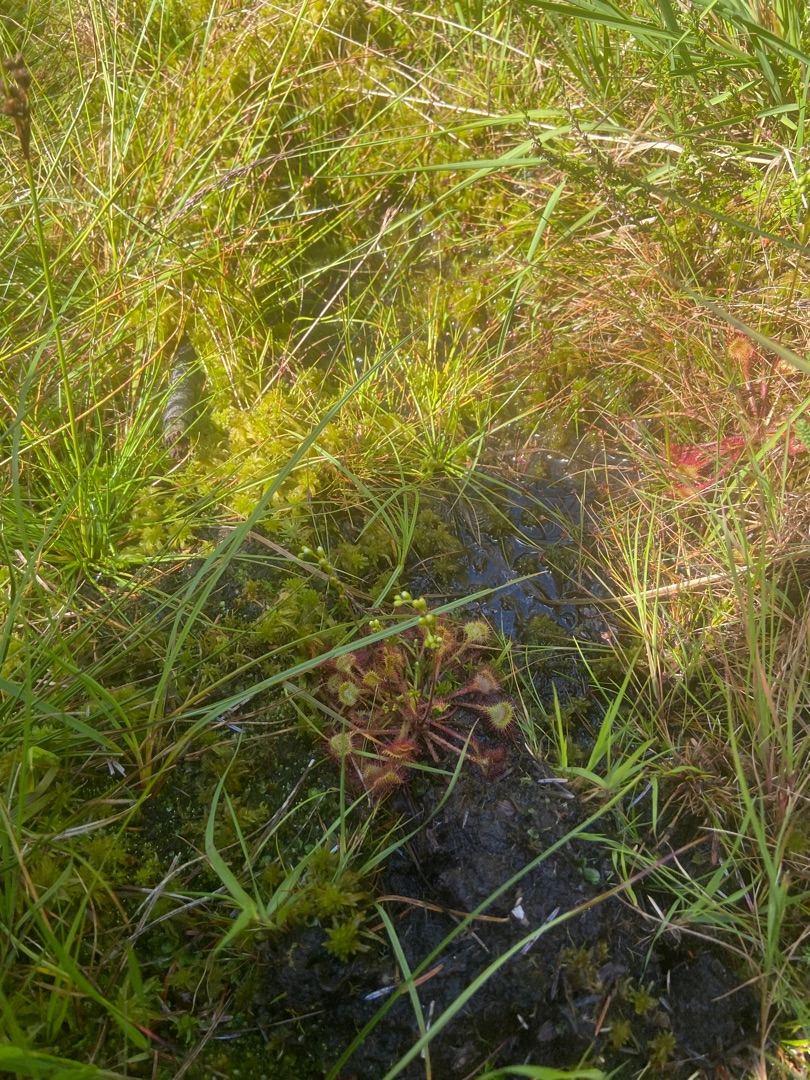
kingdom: Plantae
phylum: Tracheophyta
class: Magnoliopsida
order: Caryophyllales
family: Droseraceae
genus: Drosera
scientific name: Drosera rotundifolia
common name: Rundbladet soldug
